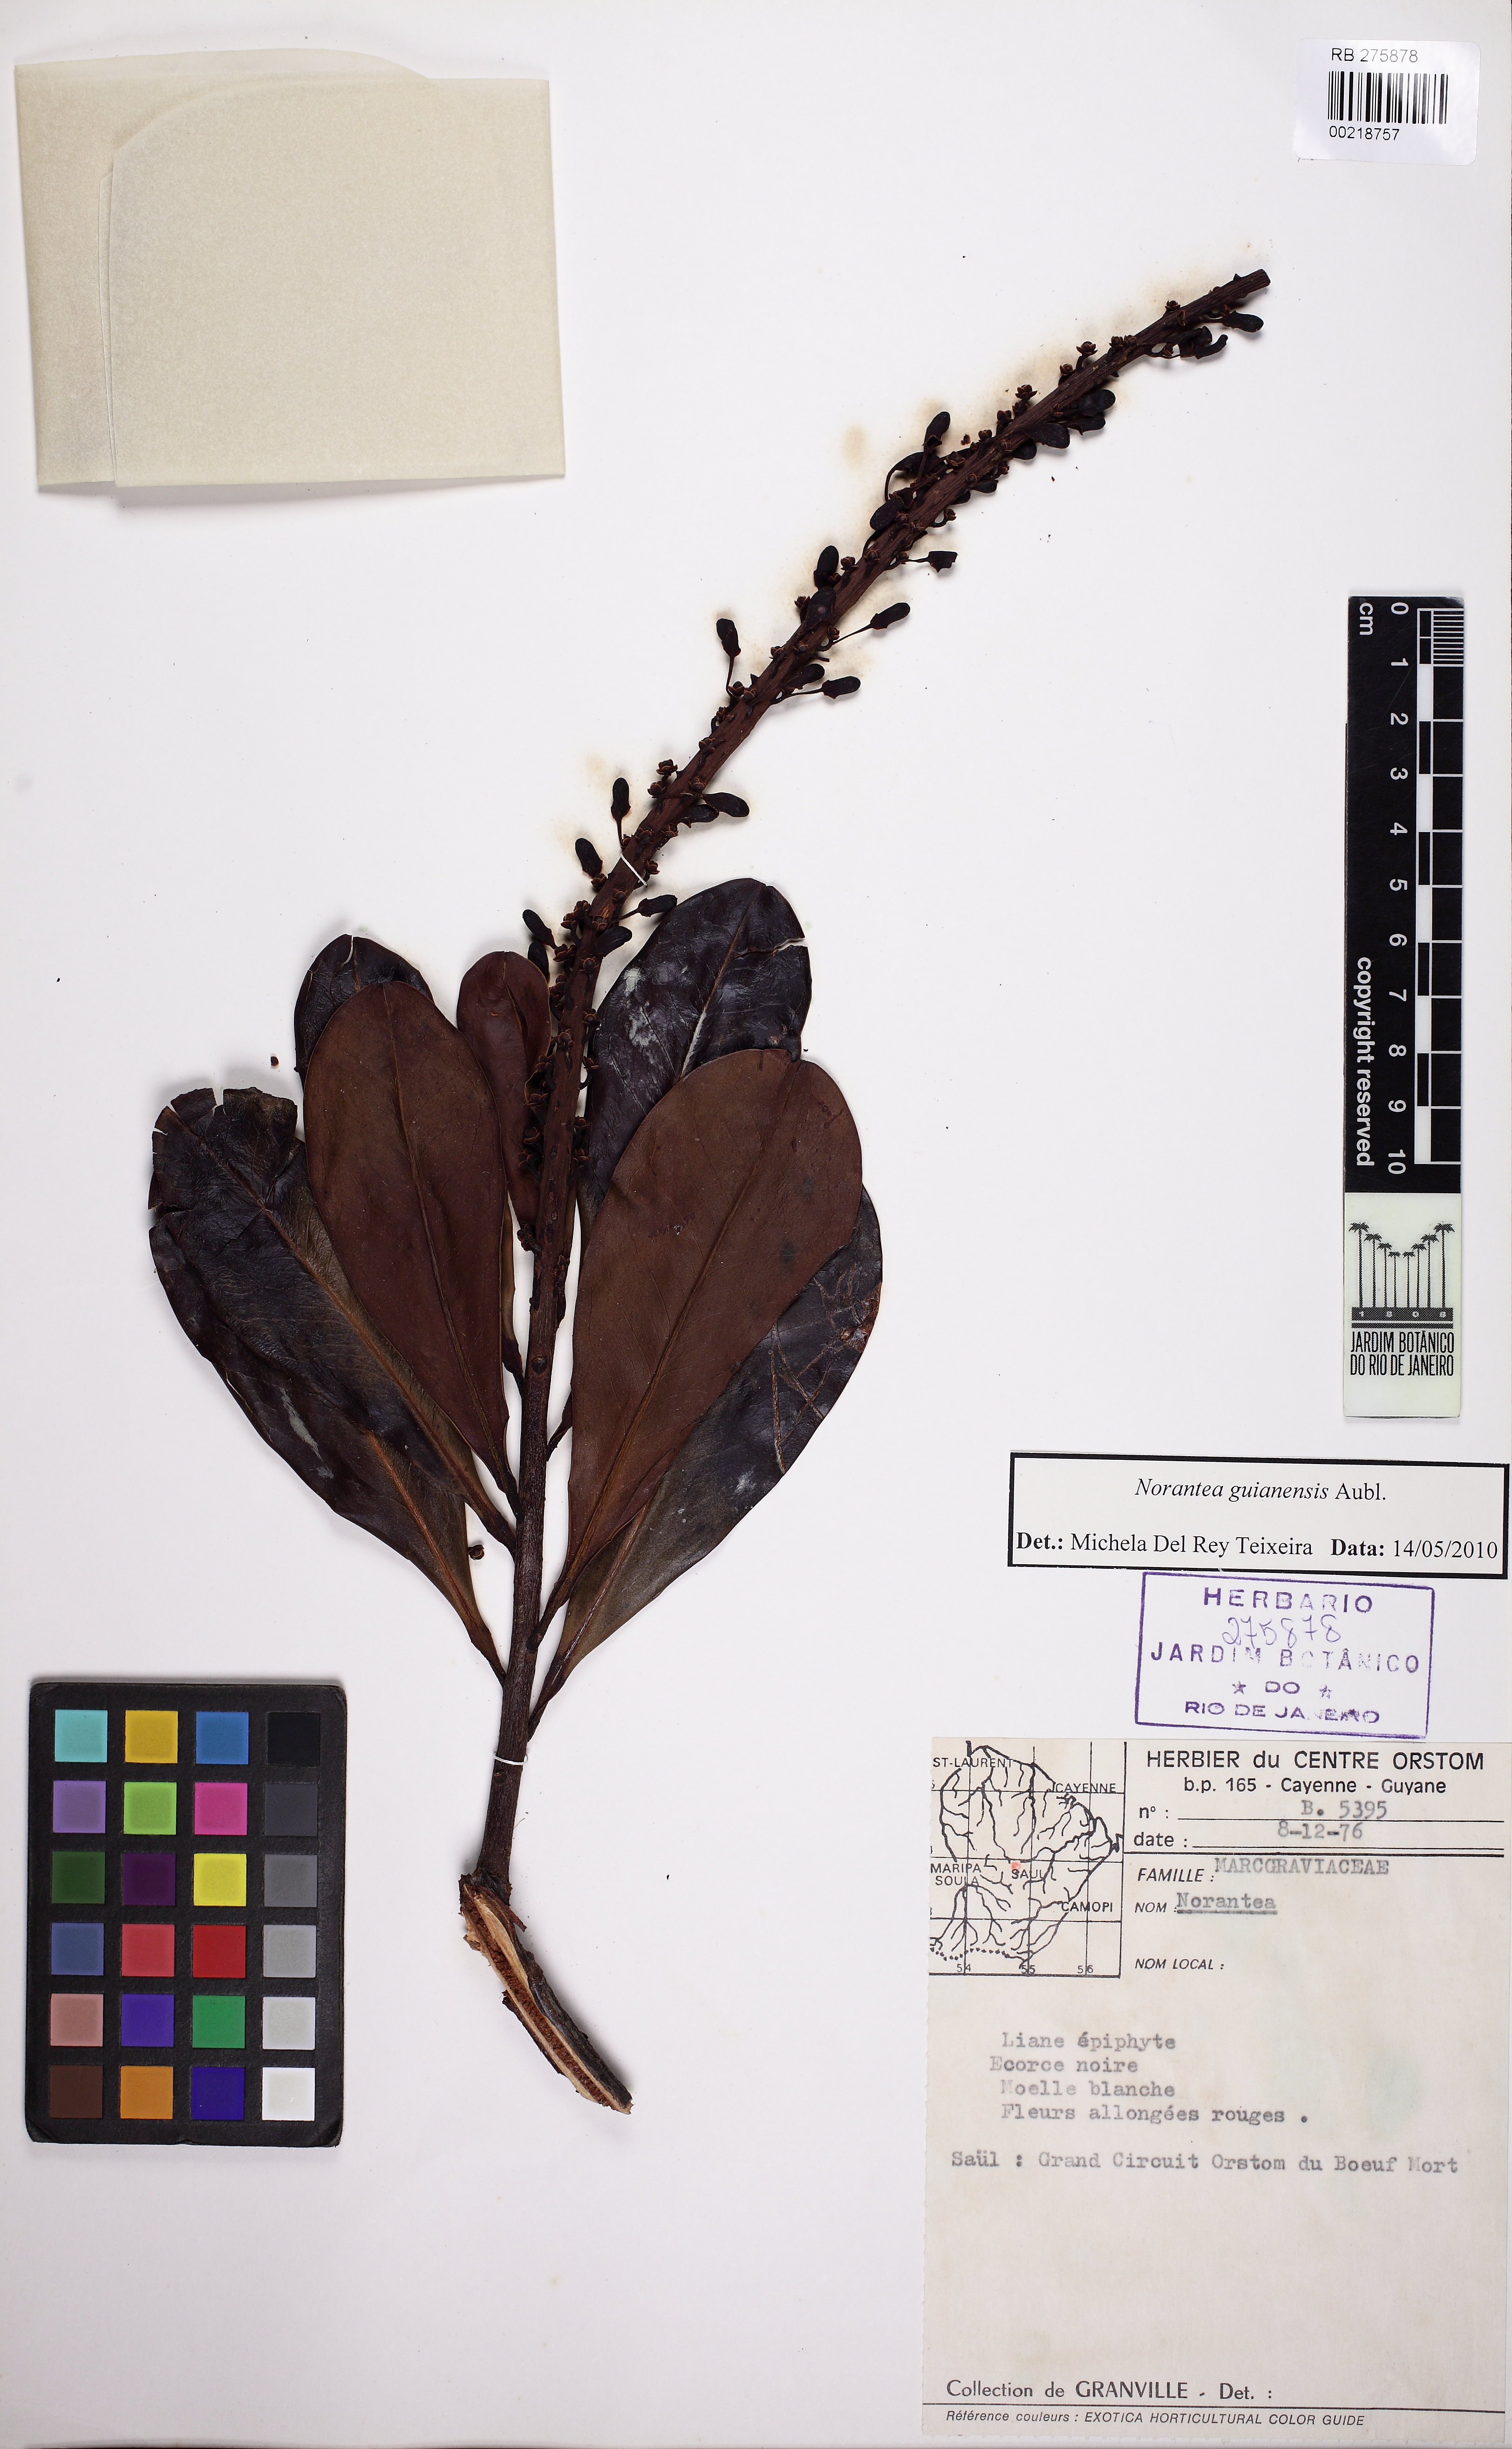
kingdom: Plantae
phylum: Tracheophyta
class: Magnoliopsida
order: Ericales
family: Marcgraviaceae
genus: Norantea
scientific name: Norantea guianensis
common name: Red hot poker vine
